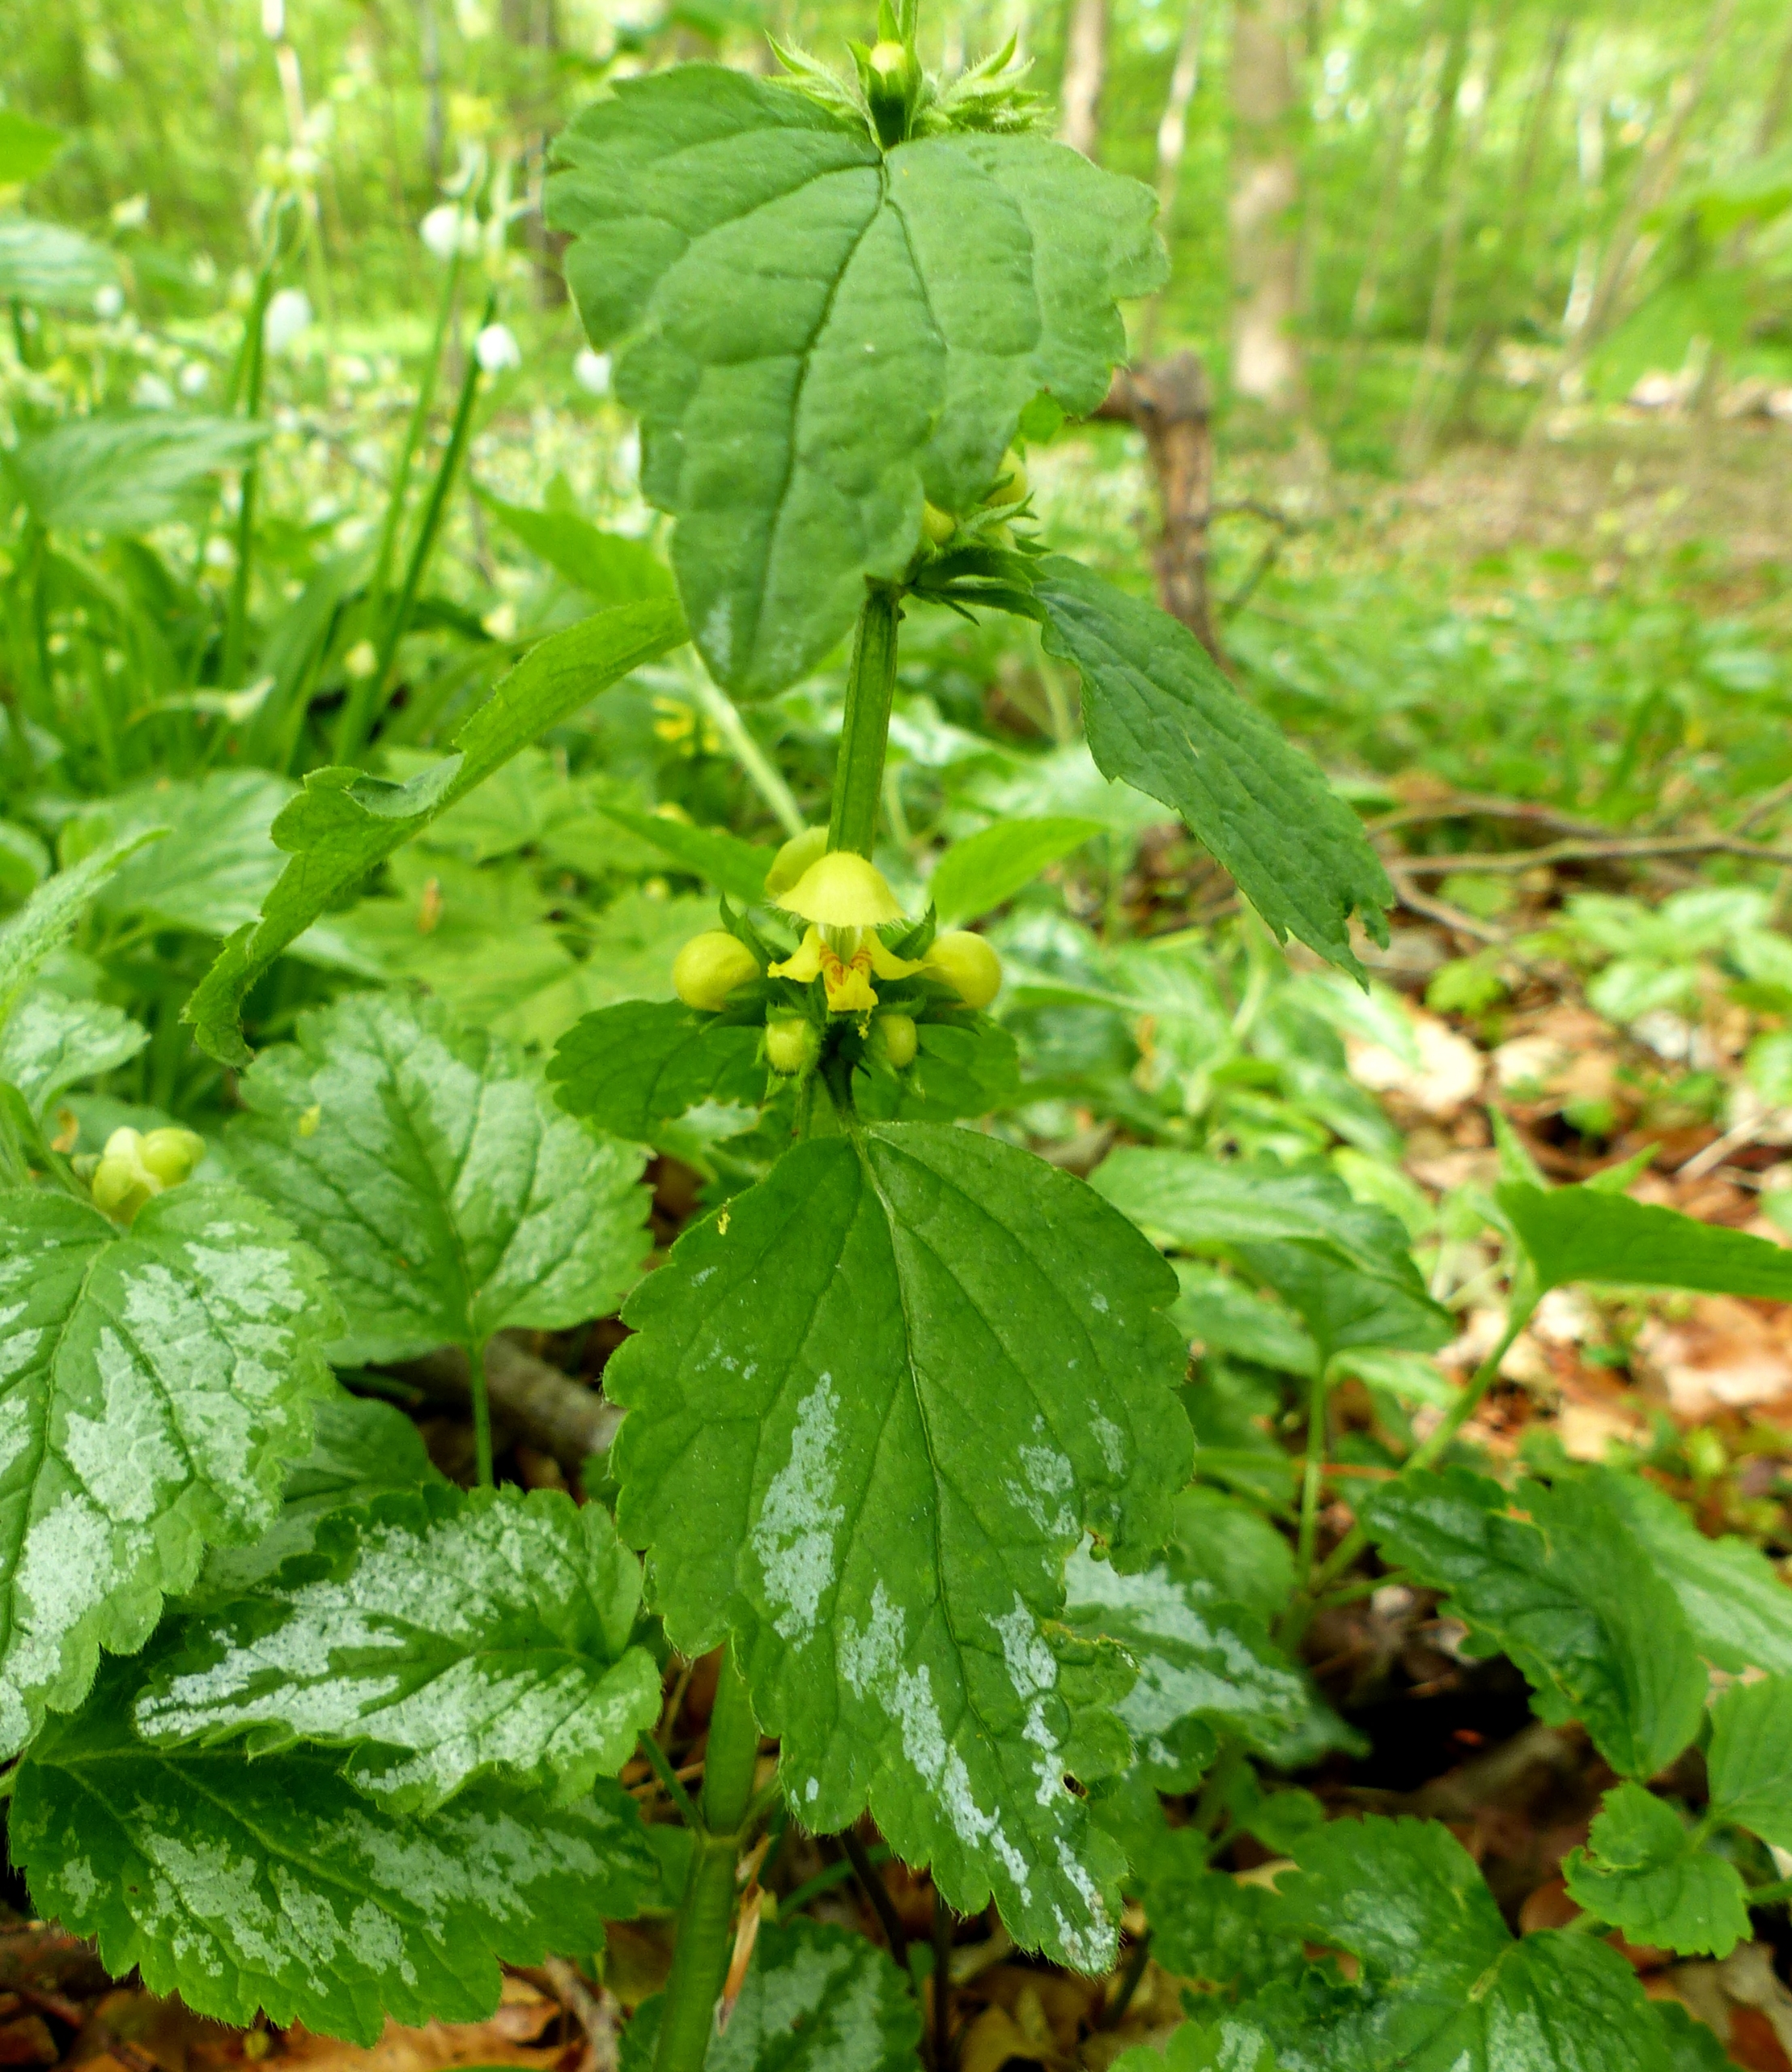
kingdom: Plantae
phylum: Tracheophyta
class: Magnoliopsida
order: Lamiales
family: Lamiaceae
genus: Lamium
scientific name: Lamium galeobdolon
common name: Have-guldnælde
